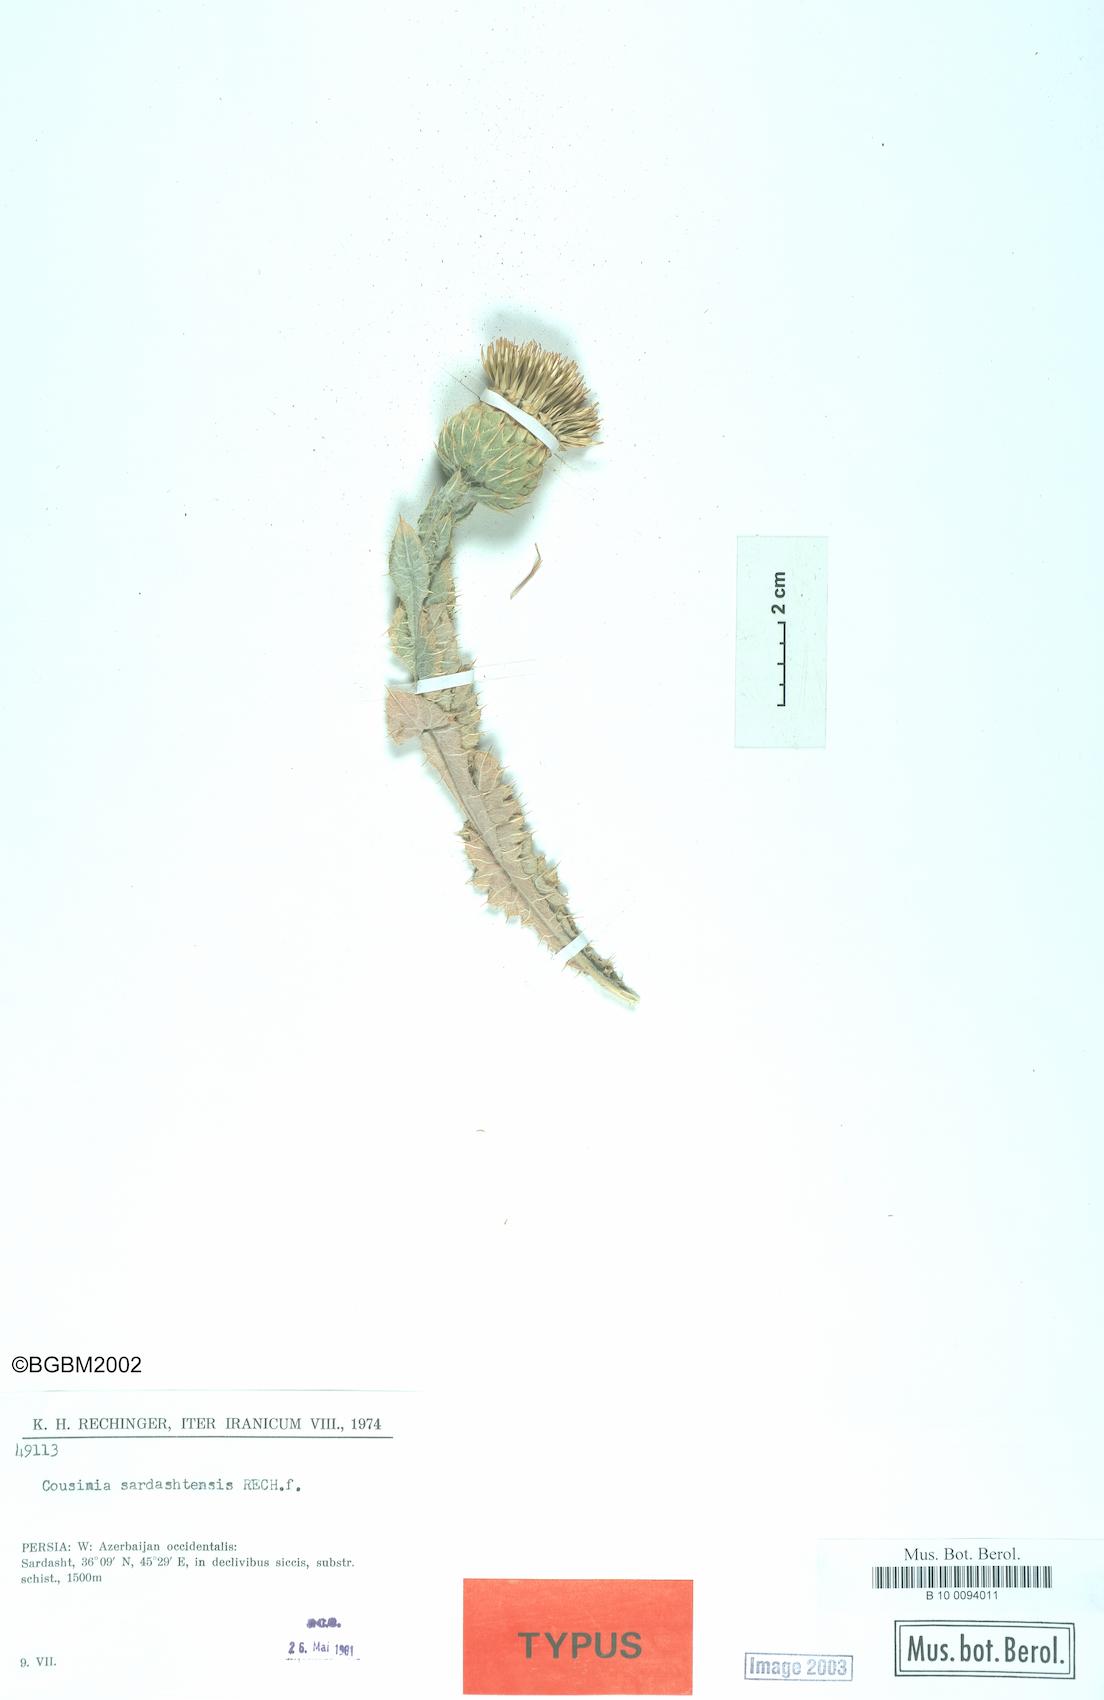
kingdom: Plantae
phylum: Tracheophyta
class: Magnoliopsida
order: Asterales
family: Asteraceae
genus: Cousinia
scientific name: Cousinia pergamacea
